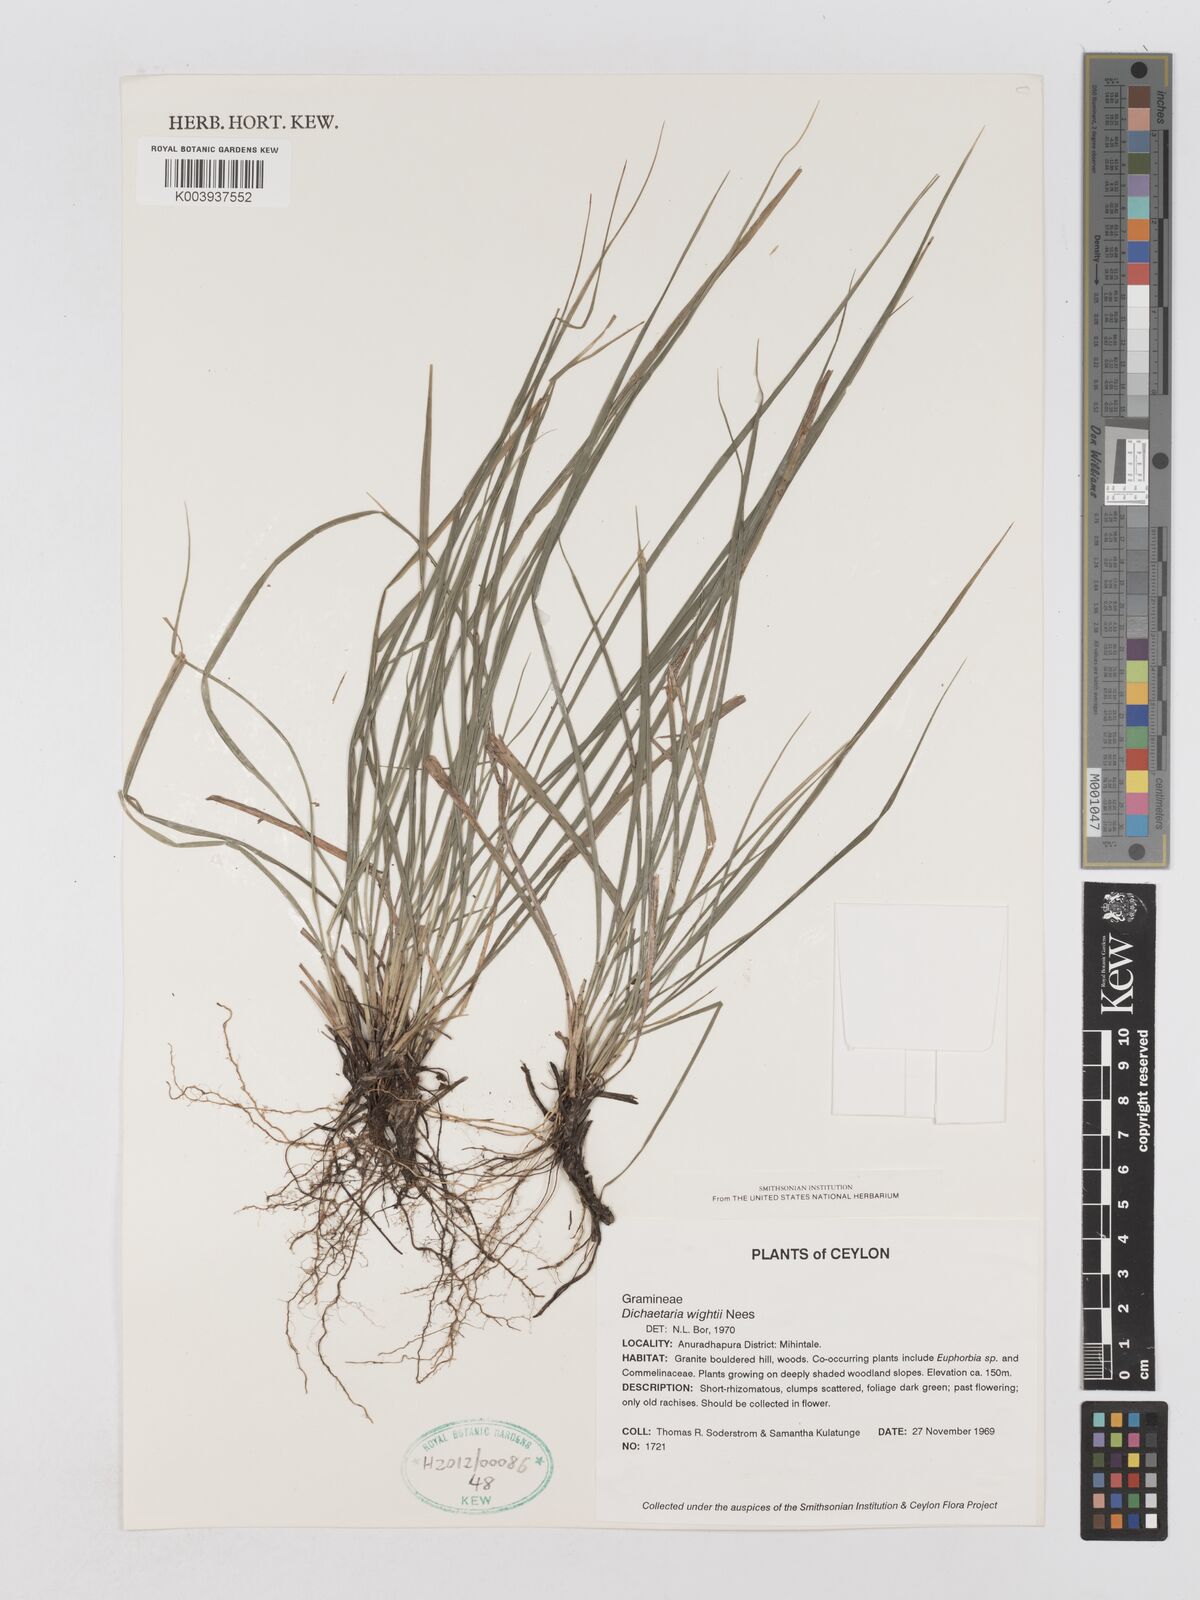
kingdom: Plantae
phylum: Tracheophyta
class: Liliopsida
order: Poales
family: Poaceae
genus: Dichaetaria
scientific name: Dichaetaria wightii
